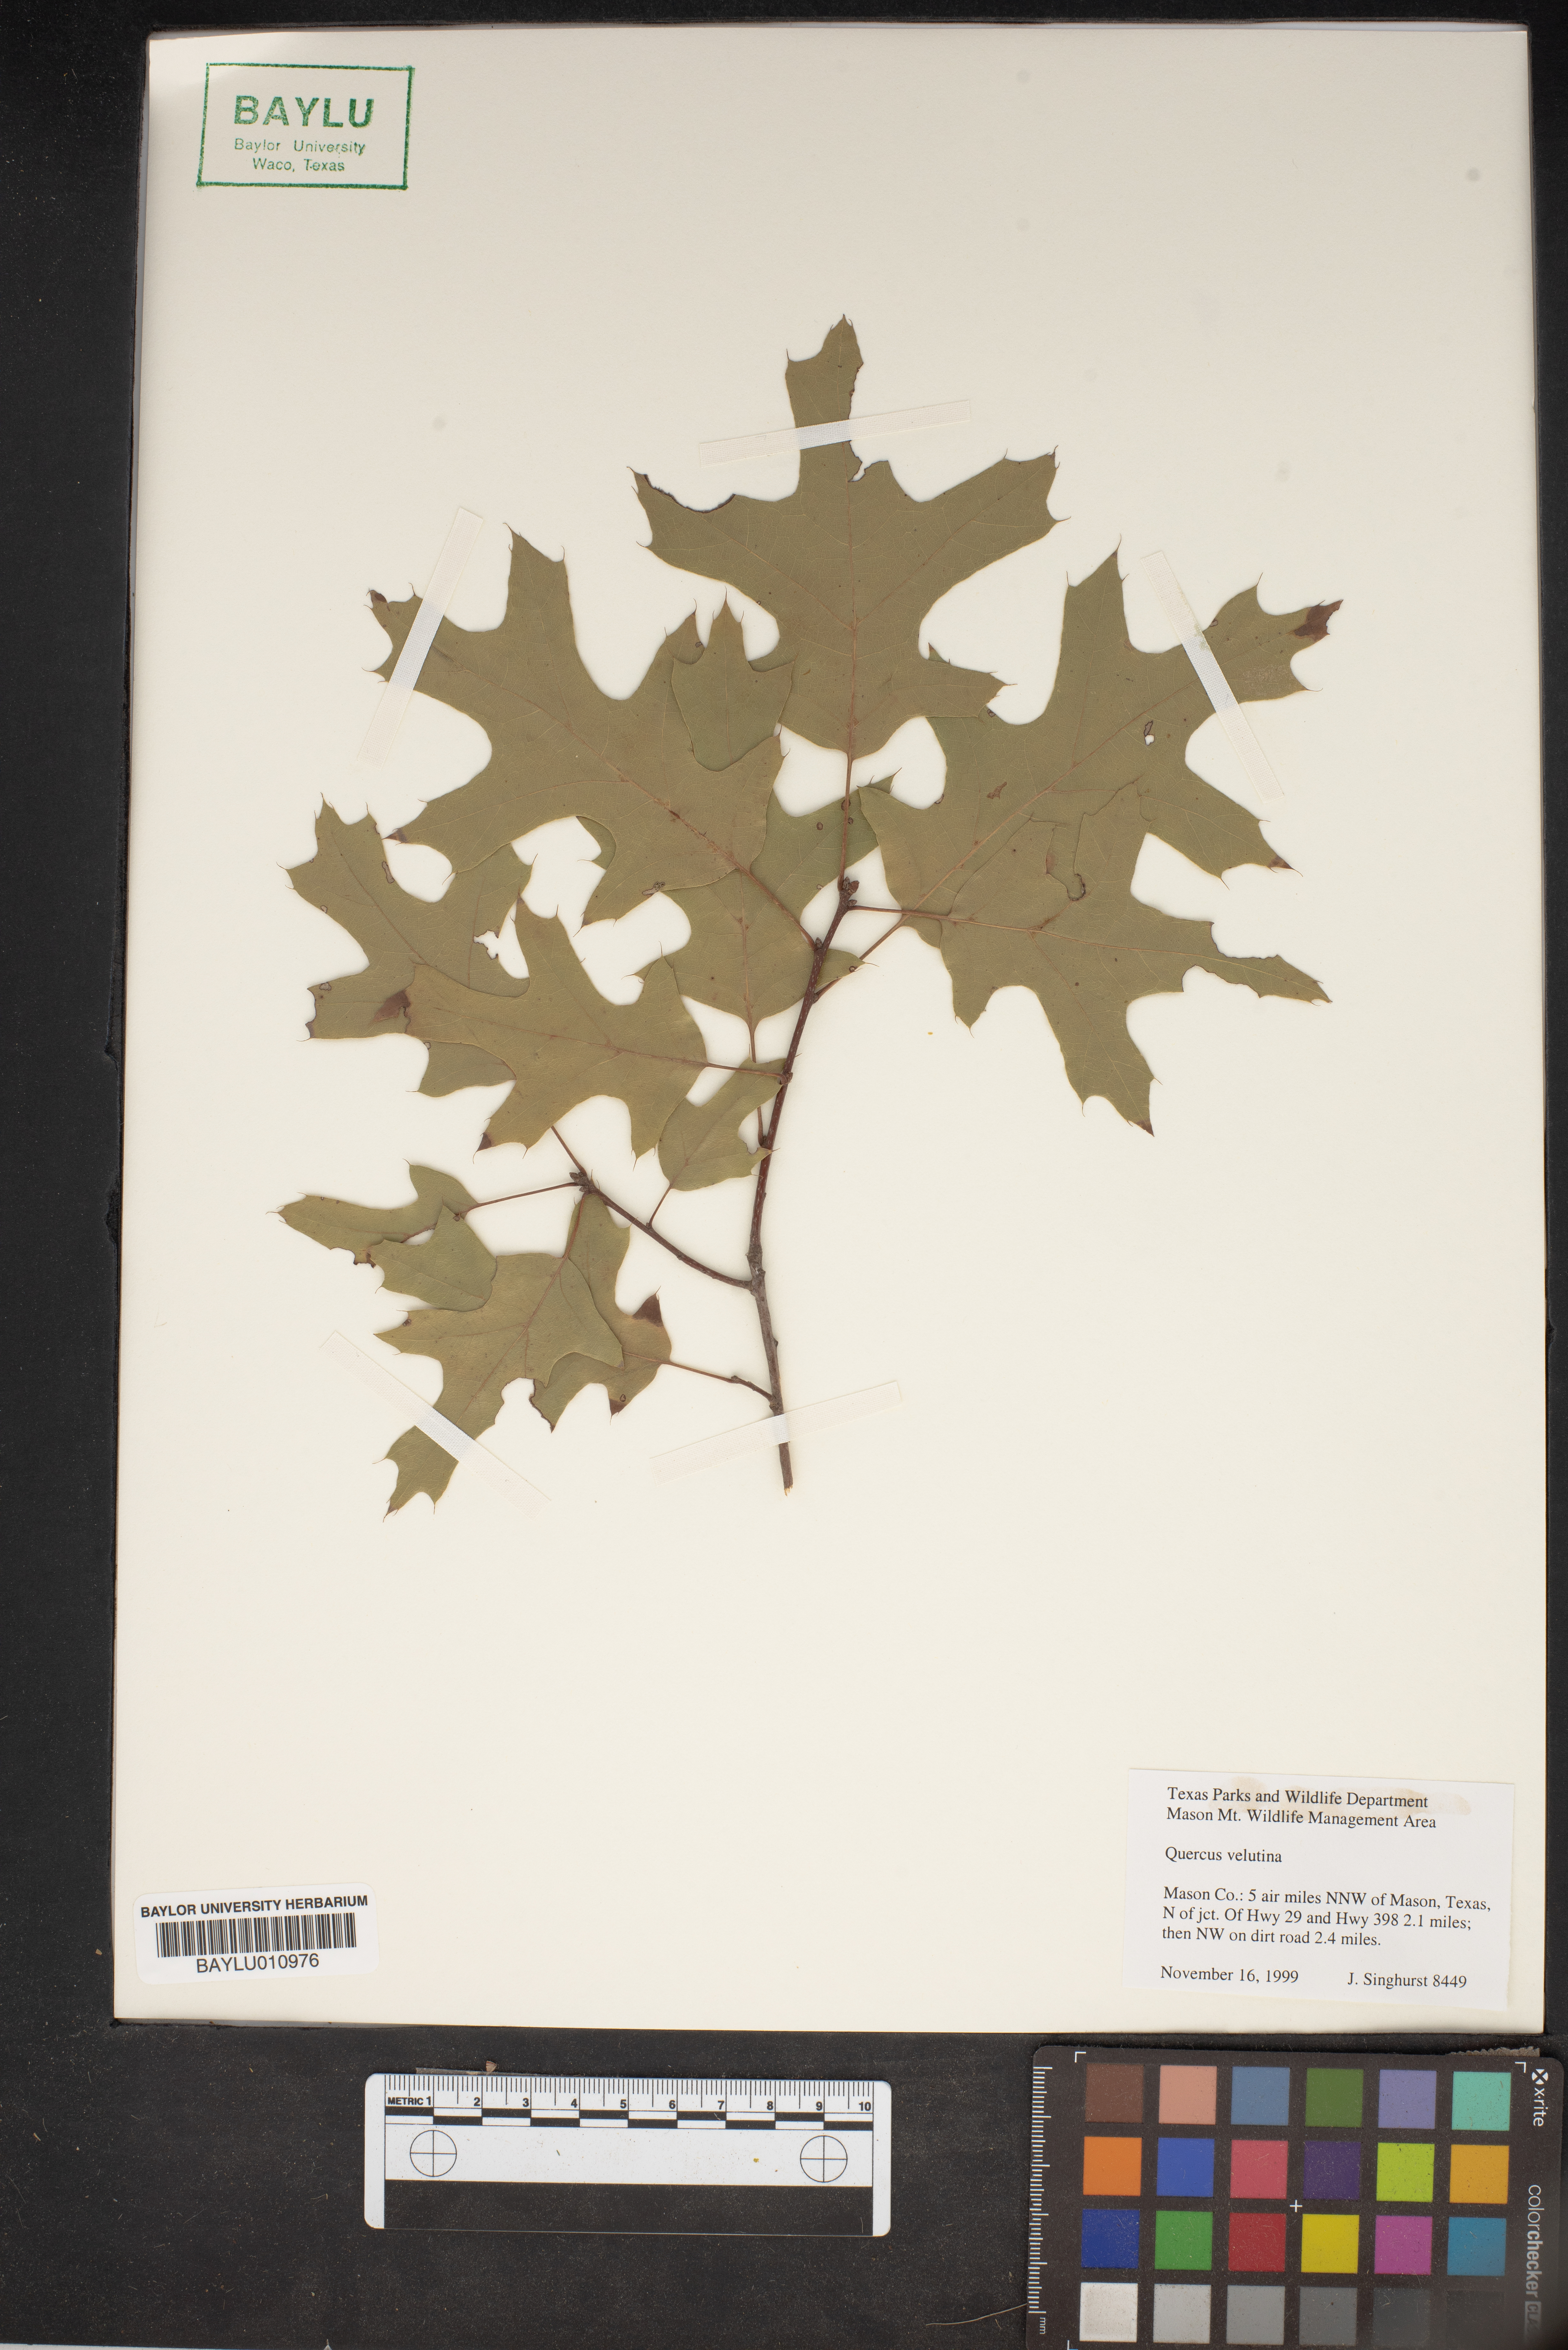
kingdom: Plantae
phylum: Tracheophyta
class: Magnoliopsida
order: Fagales
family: Fagaceae
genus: Quercus
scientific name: Quercus velutina
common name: Black oak
